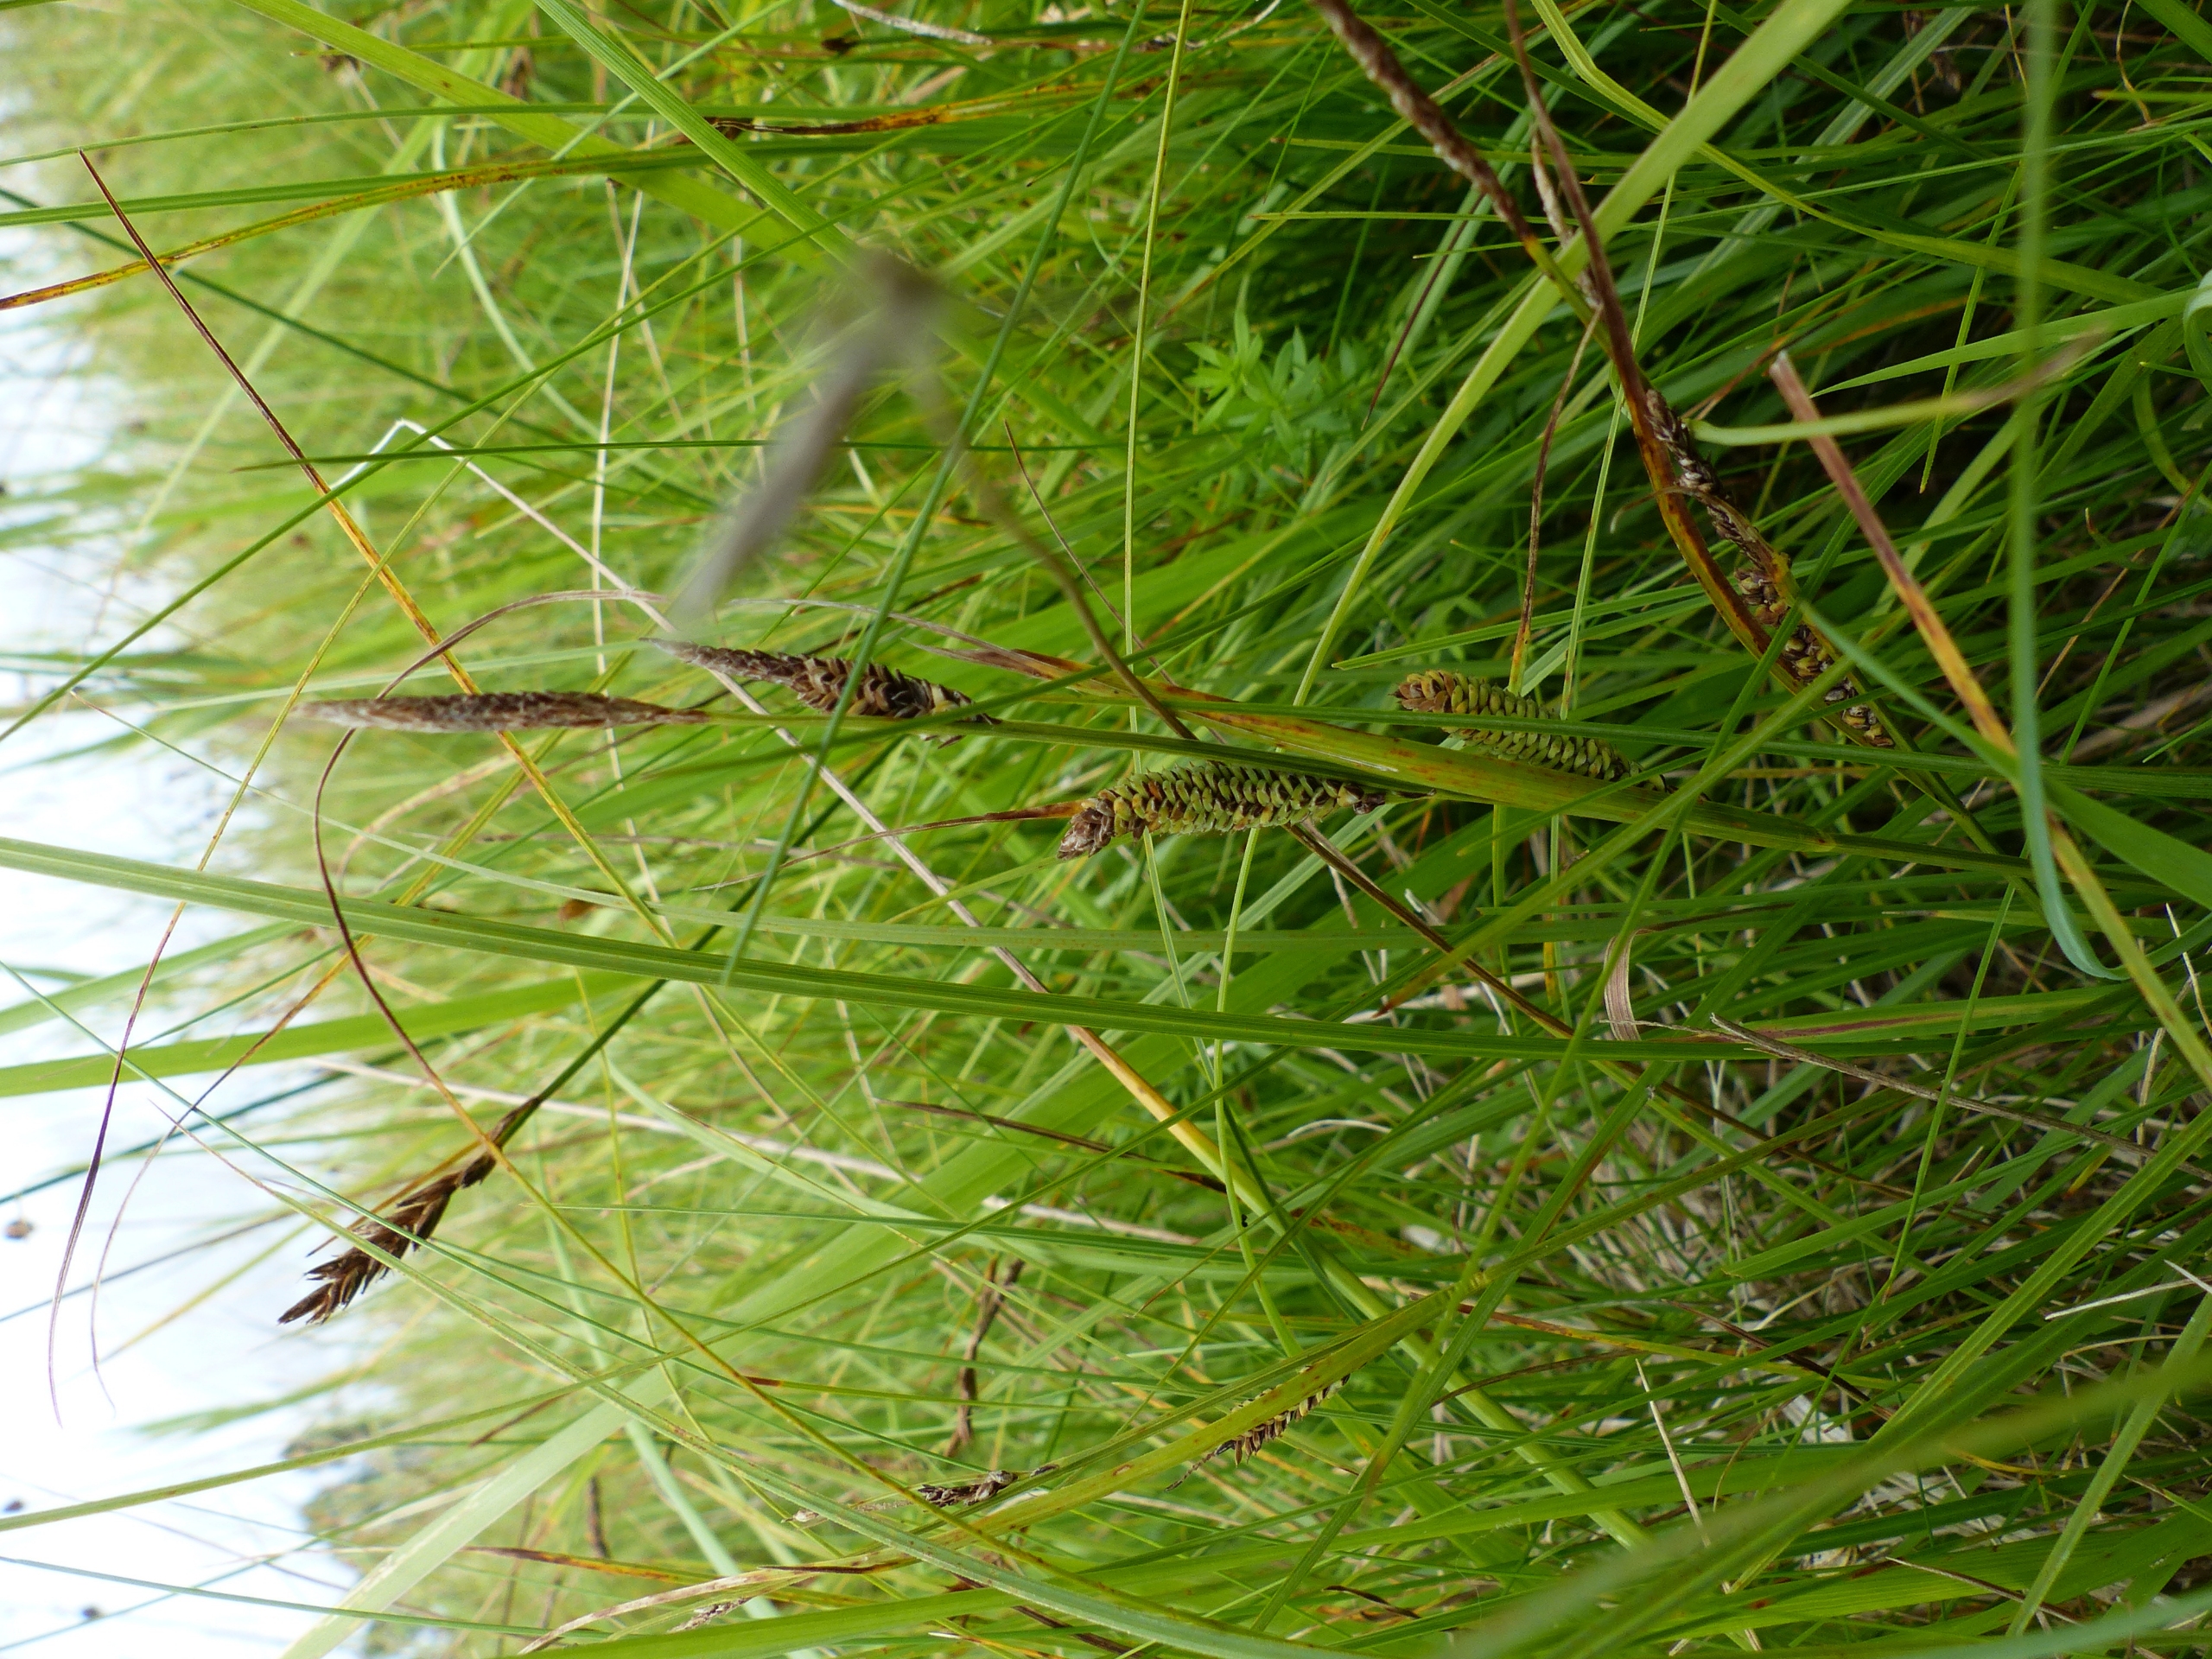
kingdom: Plantae
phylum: Tracheophyta
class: Liliopsida
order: Poales
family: Cyperaceae
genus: Carex
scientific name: Carex nigra
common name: Almindelig star
